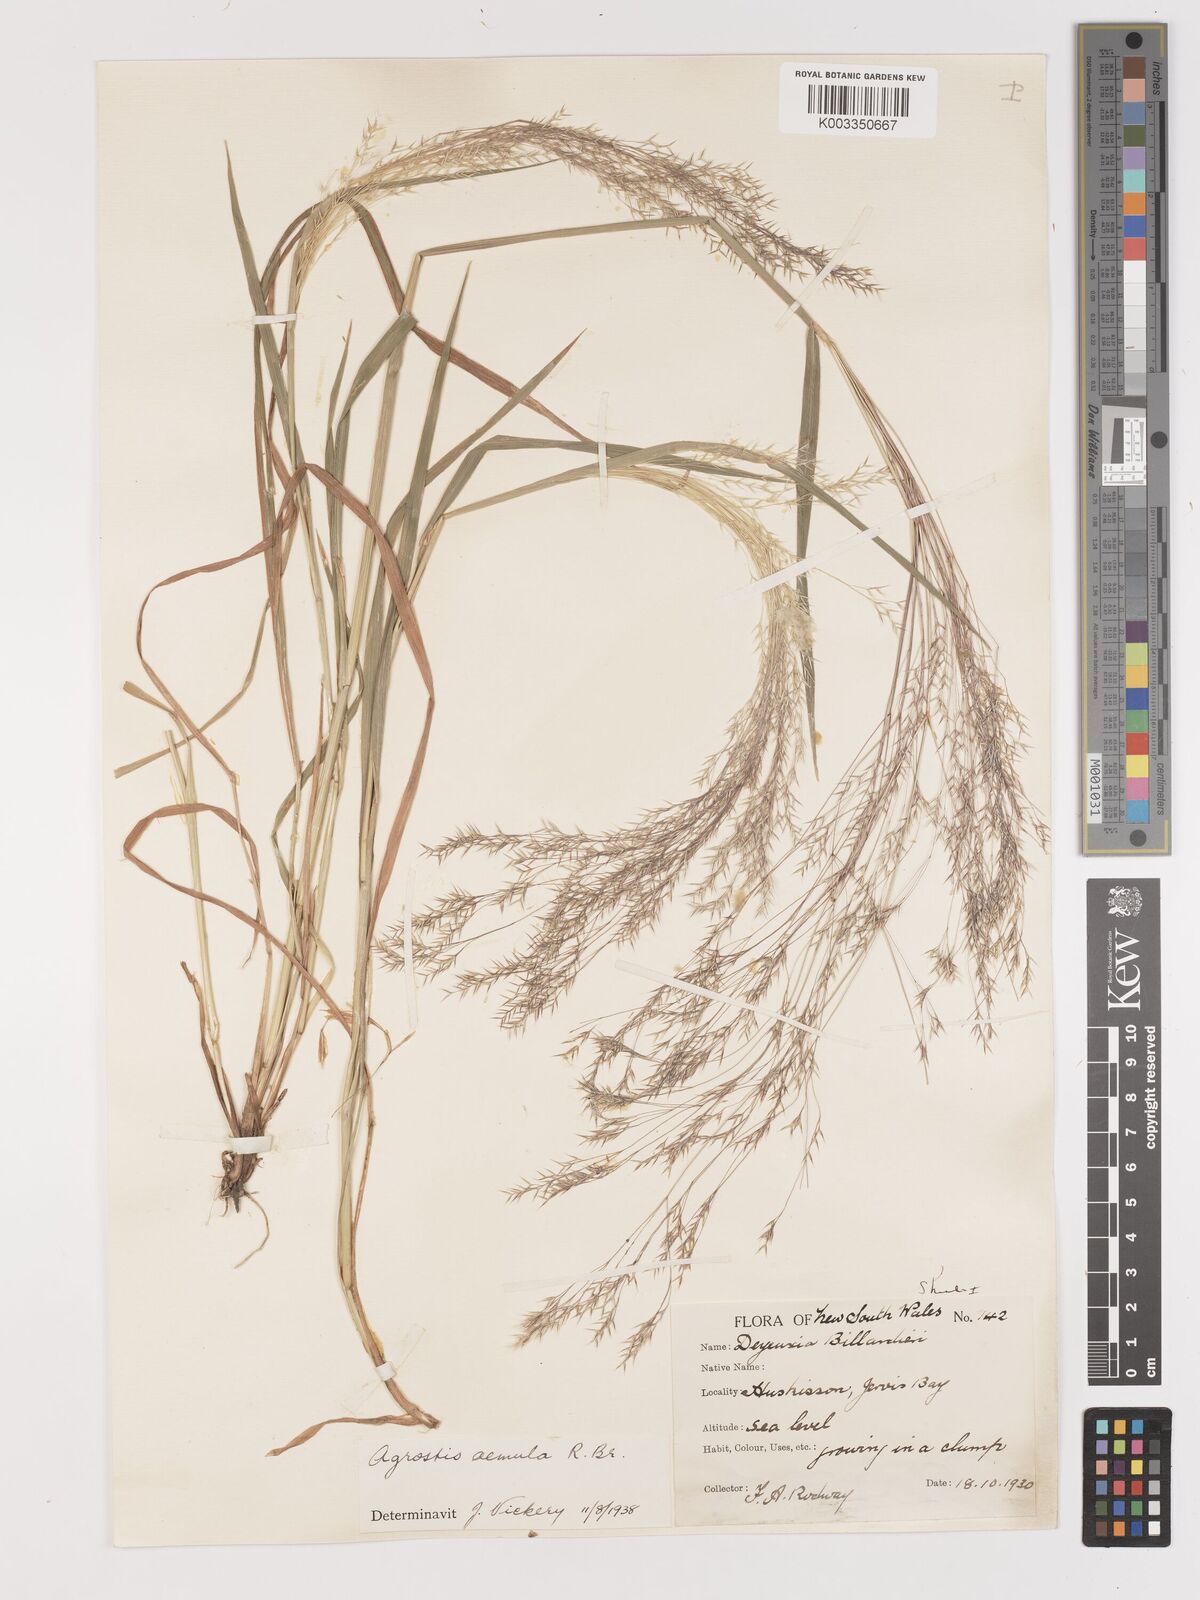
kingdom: Plantae
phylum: Tracheophyta
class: Liliopsida
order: Poales
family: Poaceae
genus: Lachnagrostis
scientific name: Lachnagrostis aemula
